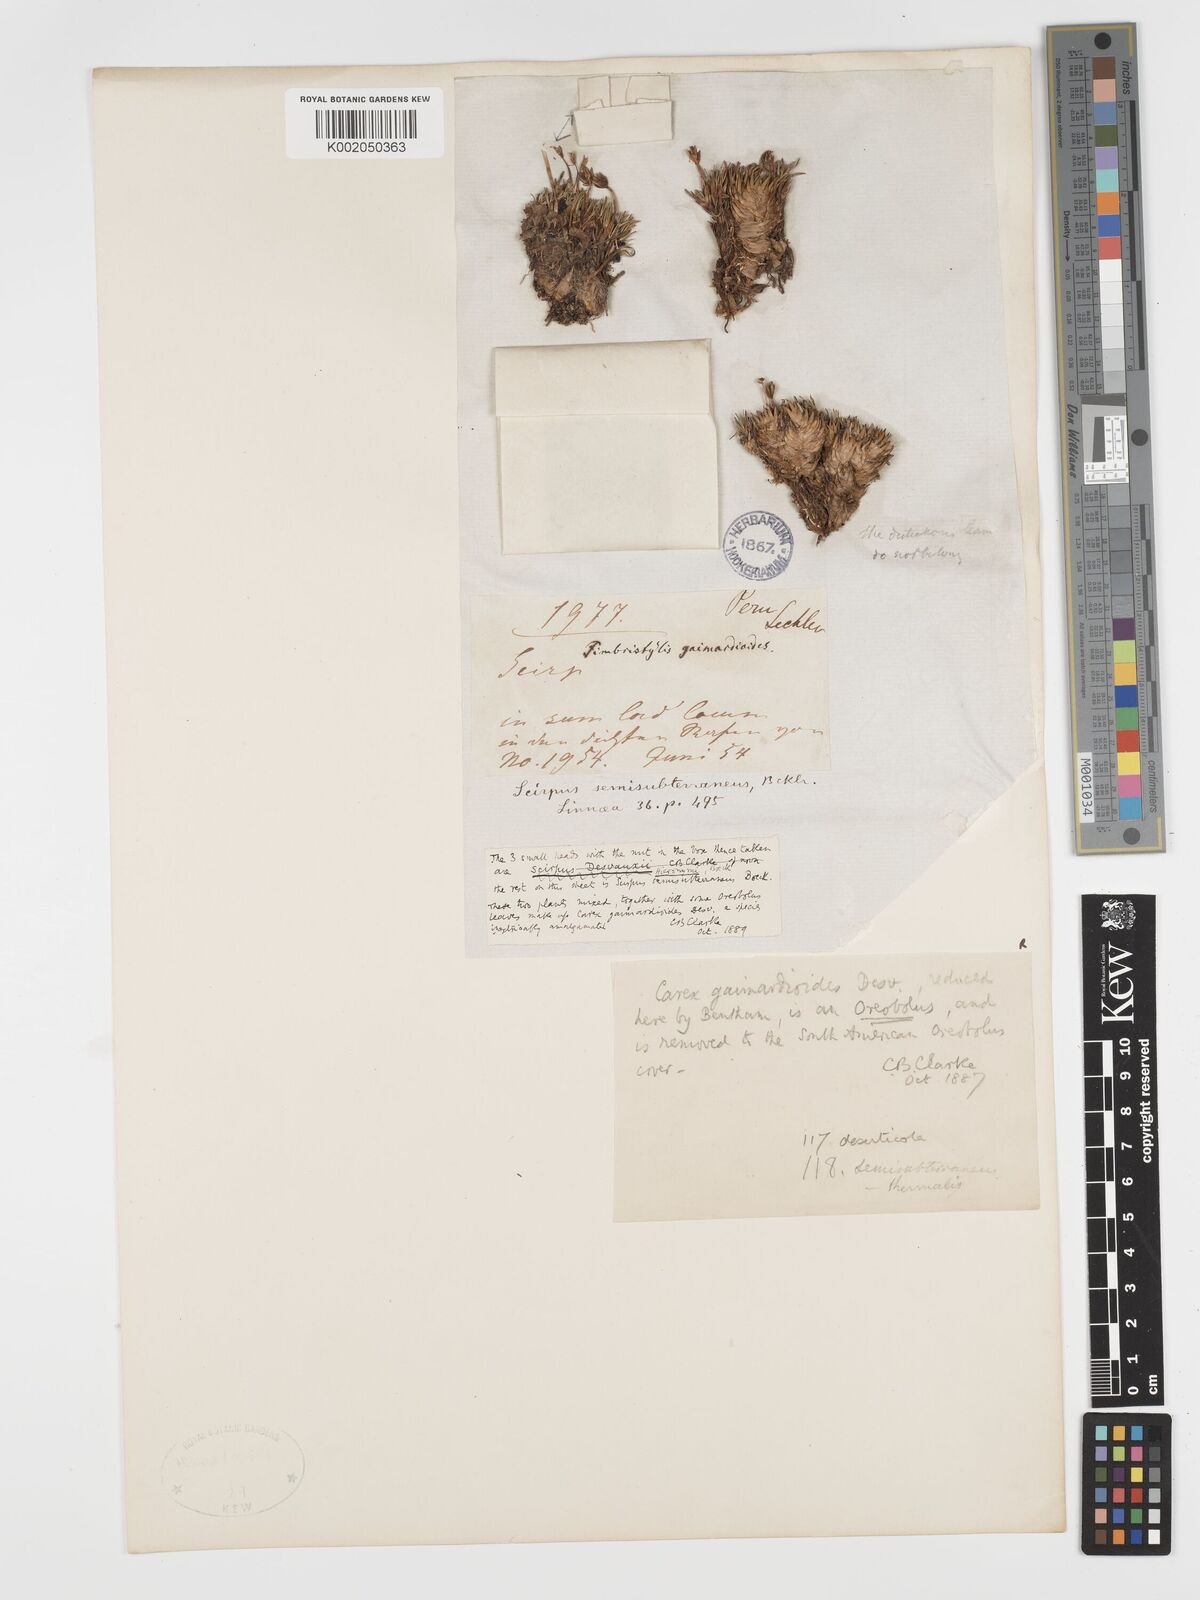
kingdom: Plantae
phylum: Tracheophyta
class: Liliopsida
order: Poales
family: Cyperaceae
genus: Phylloscirpus
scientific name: Phylloscirpus deserticola
